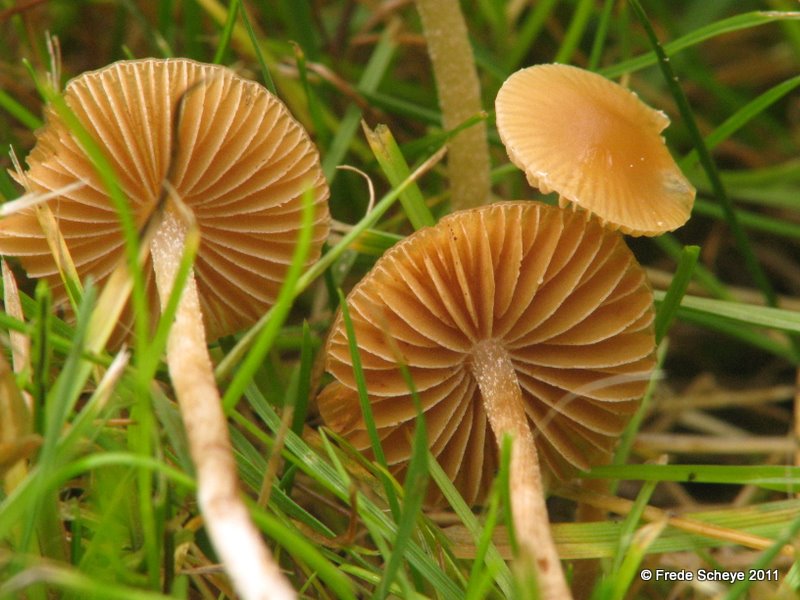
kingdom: Fungi
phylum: Basidiomycota
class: Agaricomycetes
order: Agaricales
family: Tubariaceae
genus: Tubaria
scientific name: Tubaria furfuracea
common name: kliddet fnughat
